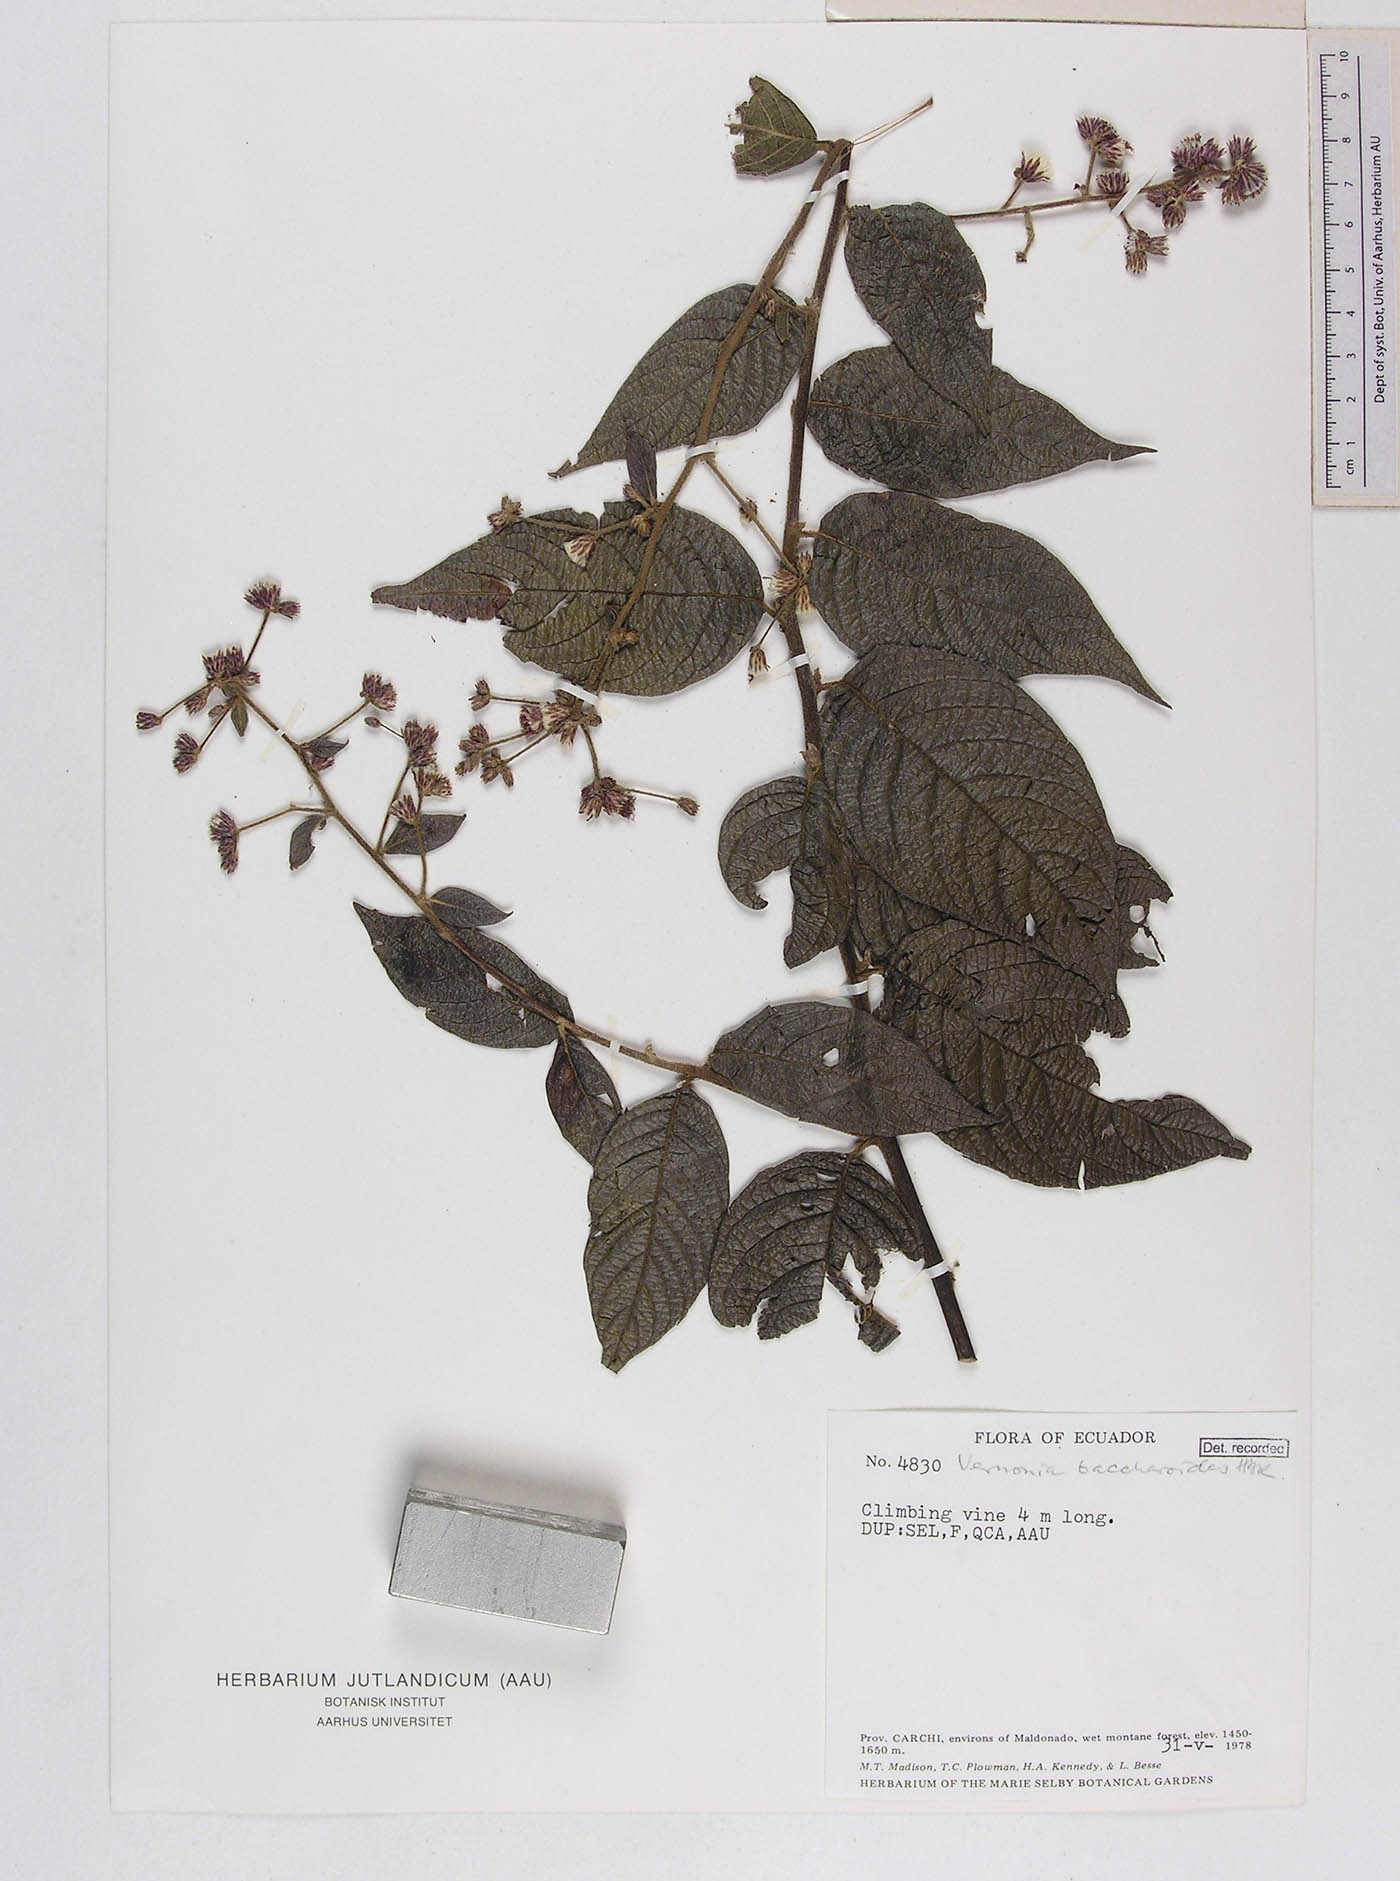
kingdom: Plantae
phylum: Tracheophyta
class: Magnoliopsida
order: Asterales
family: Asteraceae
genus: Lepidaploa
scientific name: Lepidaploa canescens
